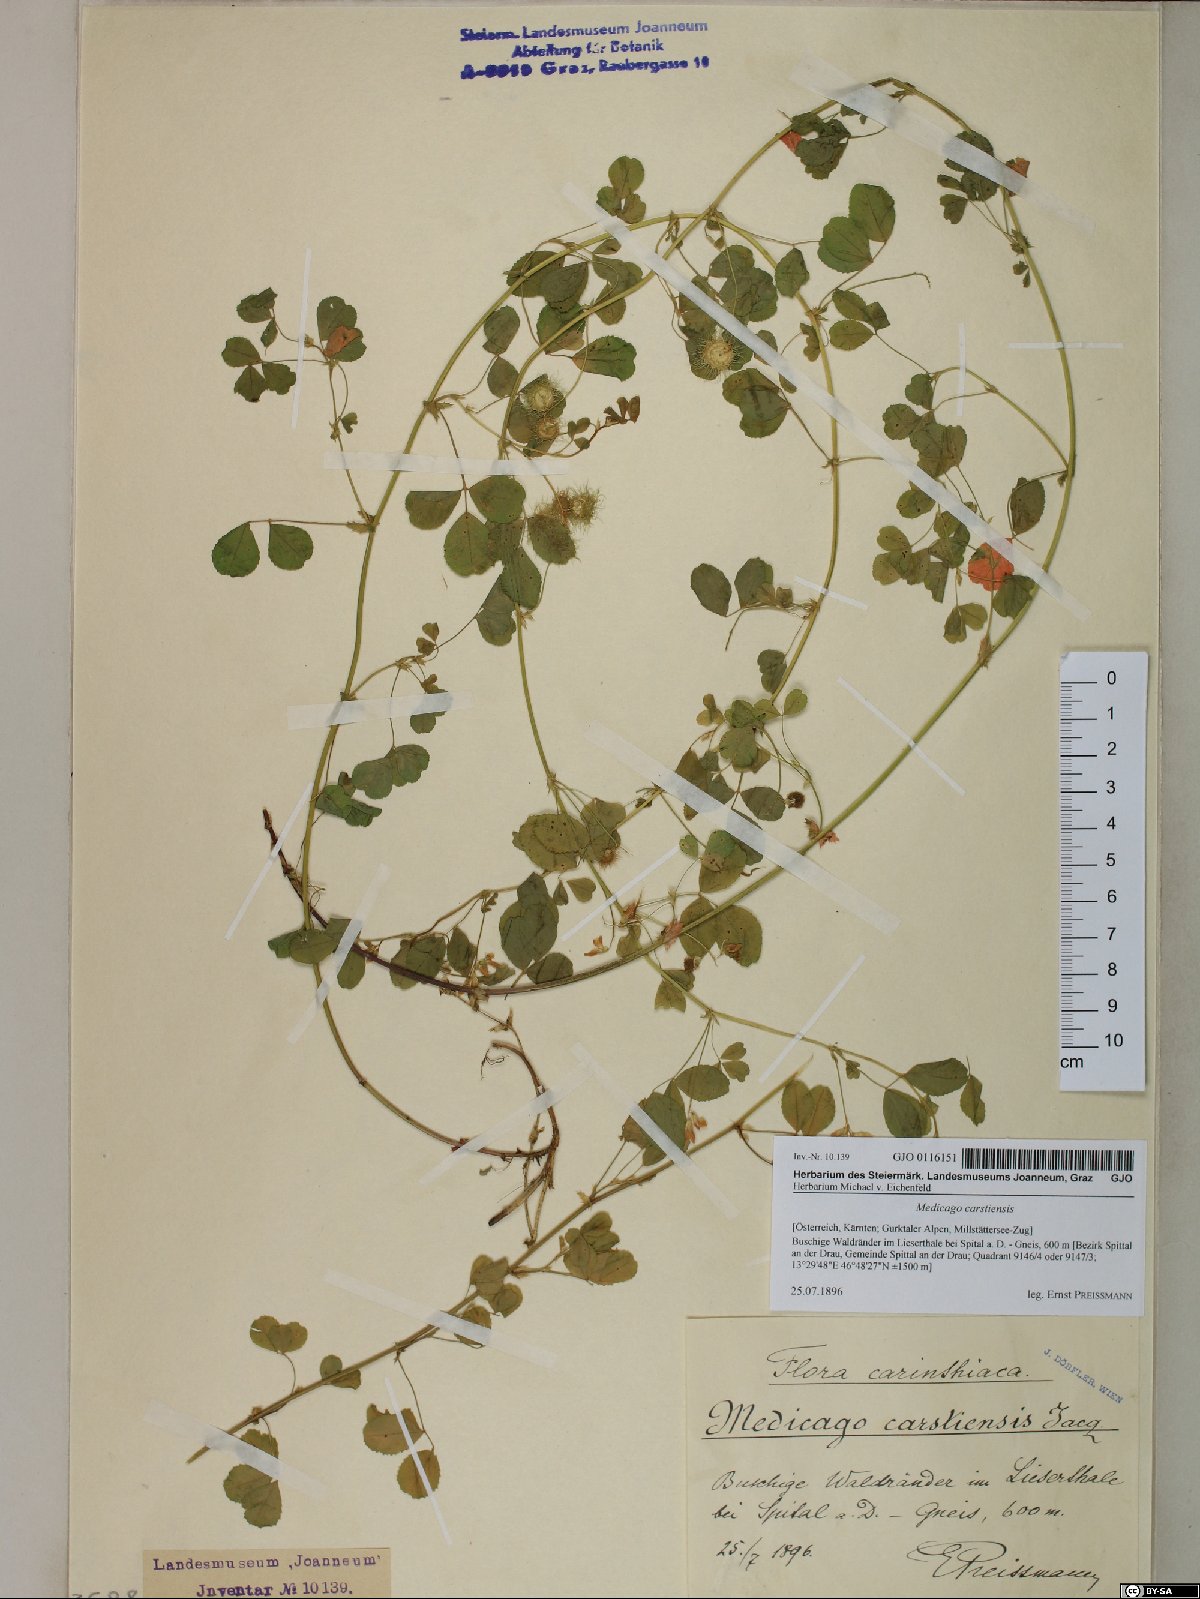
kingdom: Plantae
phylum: Tracheophyta
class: Magnoliopsida
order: Fabales
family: Fabaceae
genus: Medicago
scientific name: Medicago carstiensis
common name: Creeping-rooted medic
